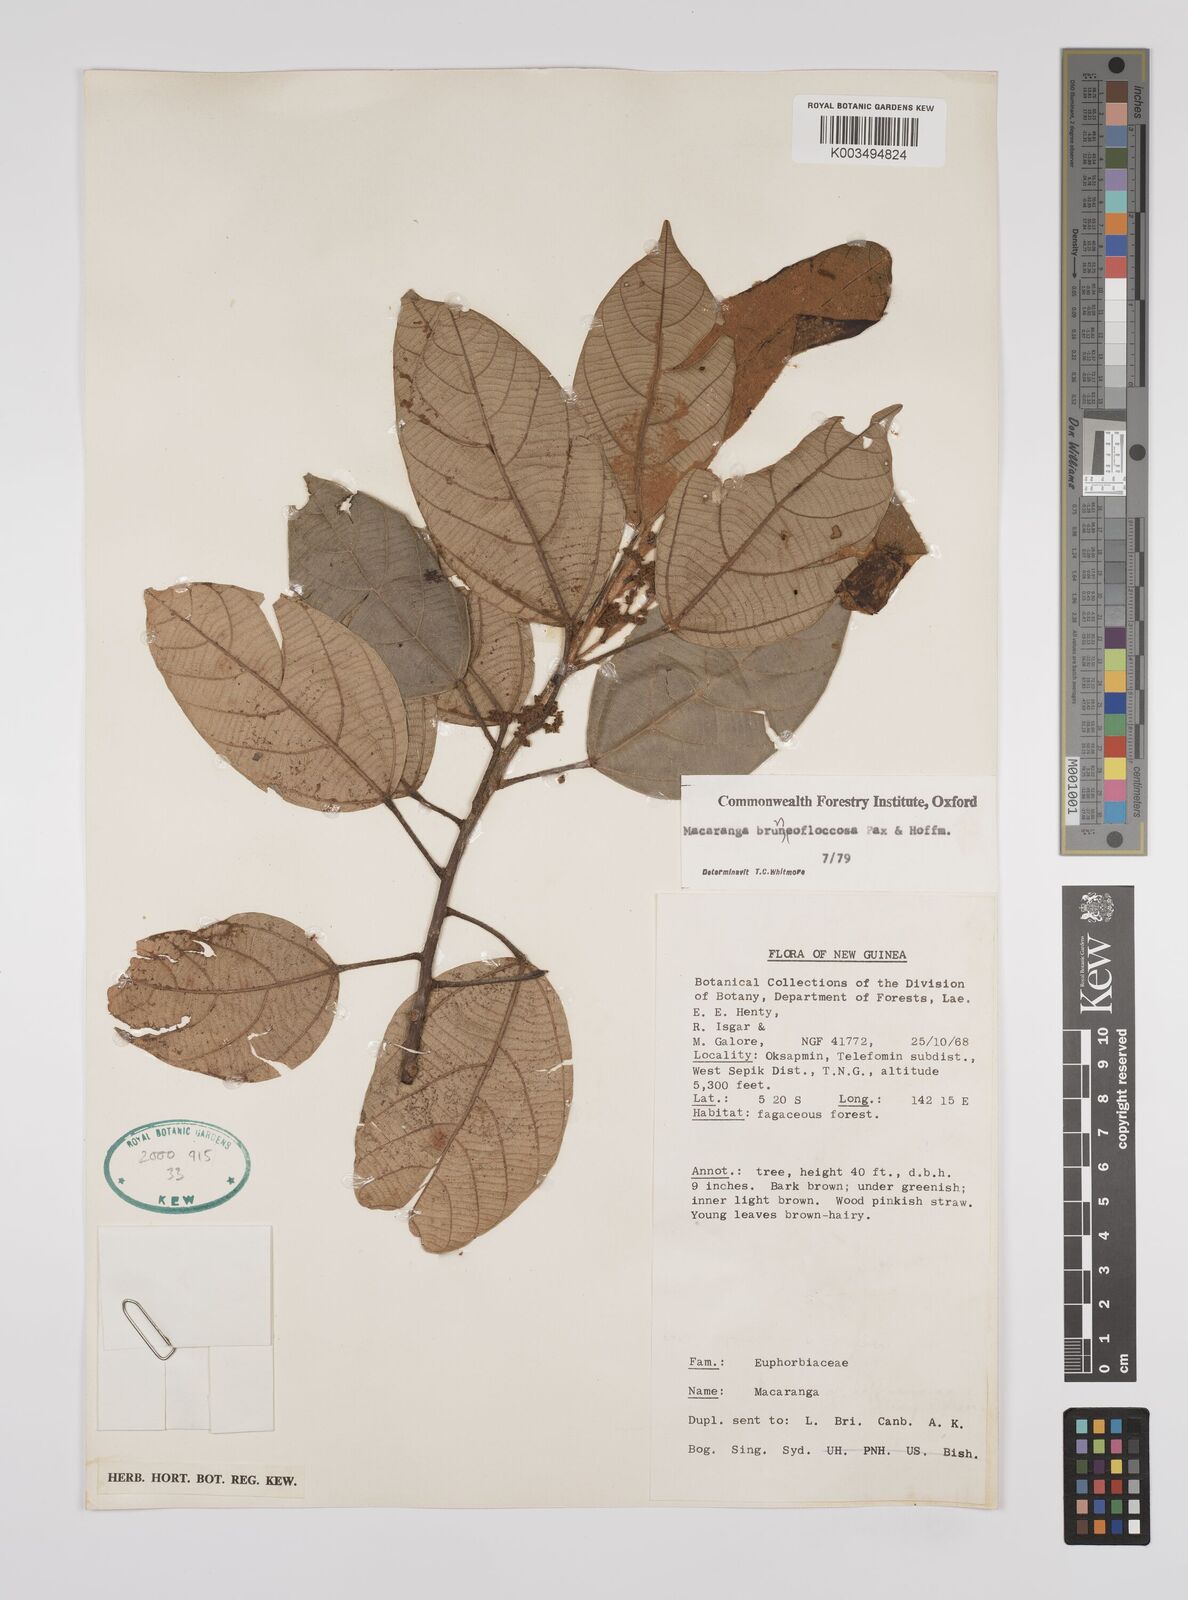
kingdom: Plantae
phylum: Tracheophyta
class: Magnoliopsida
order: Malpighiales
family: Euphorbiaceae
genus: Macaranga
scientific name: Macaranga brunneofloccosa
